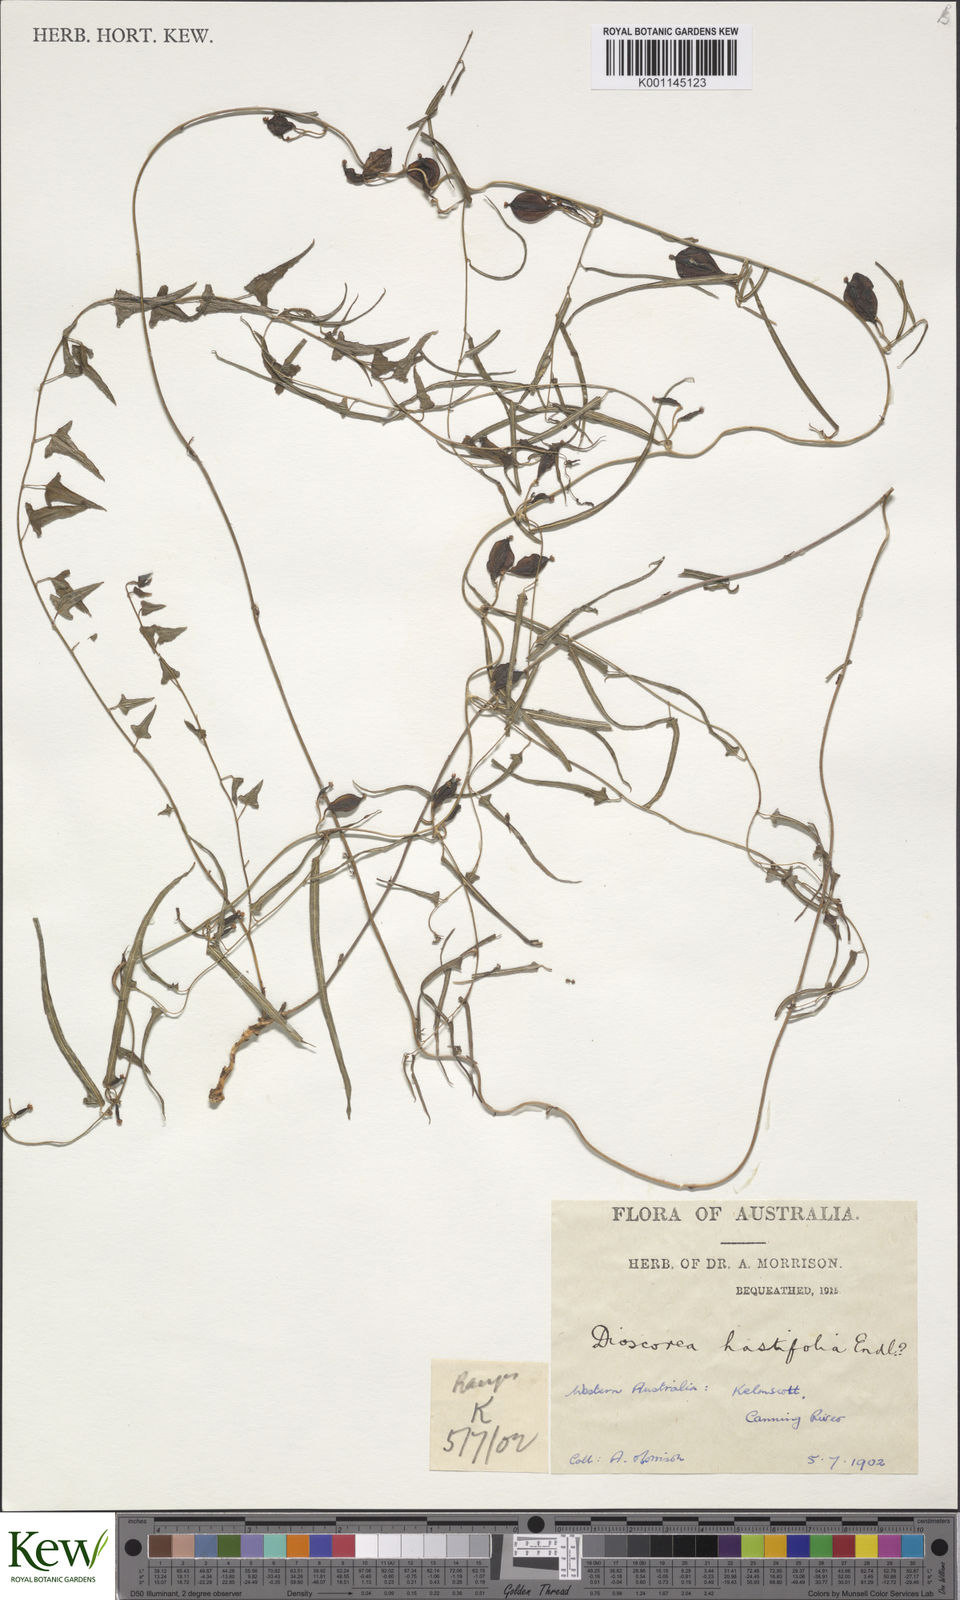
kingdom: Plantae
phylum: Tracheophyta
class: Liliopsida
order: Dioscoreales
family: Dioscoreaceae
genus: Dioscorea
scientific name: Dioscorea hastifolia
